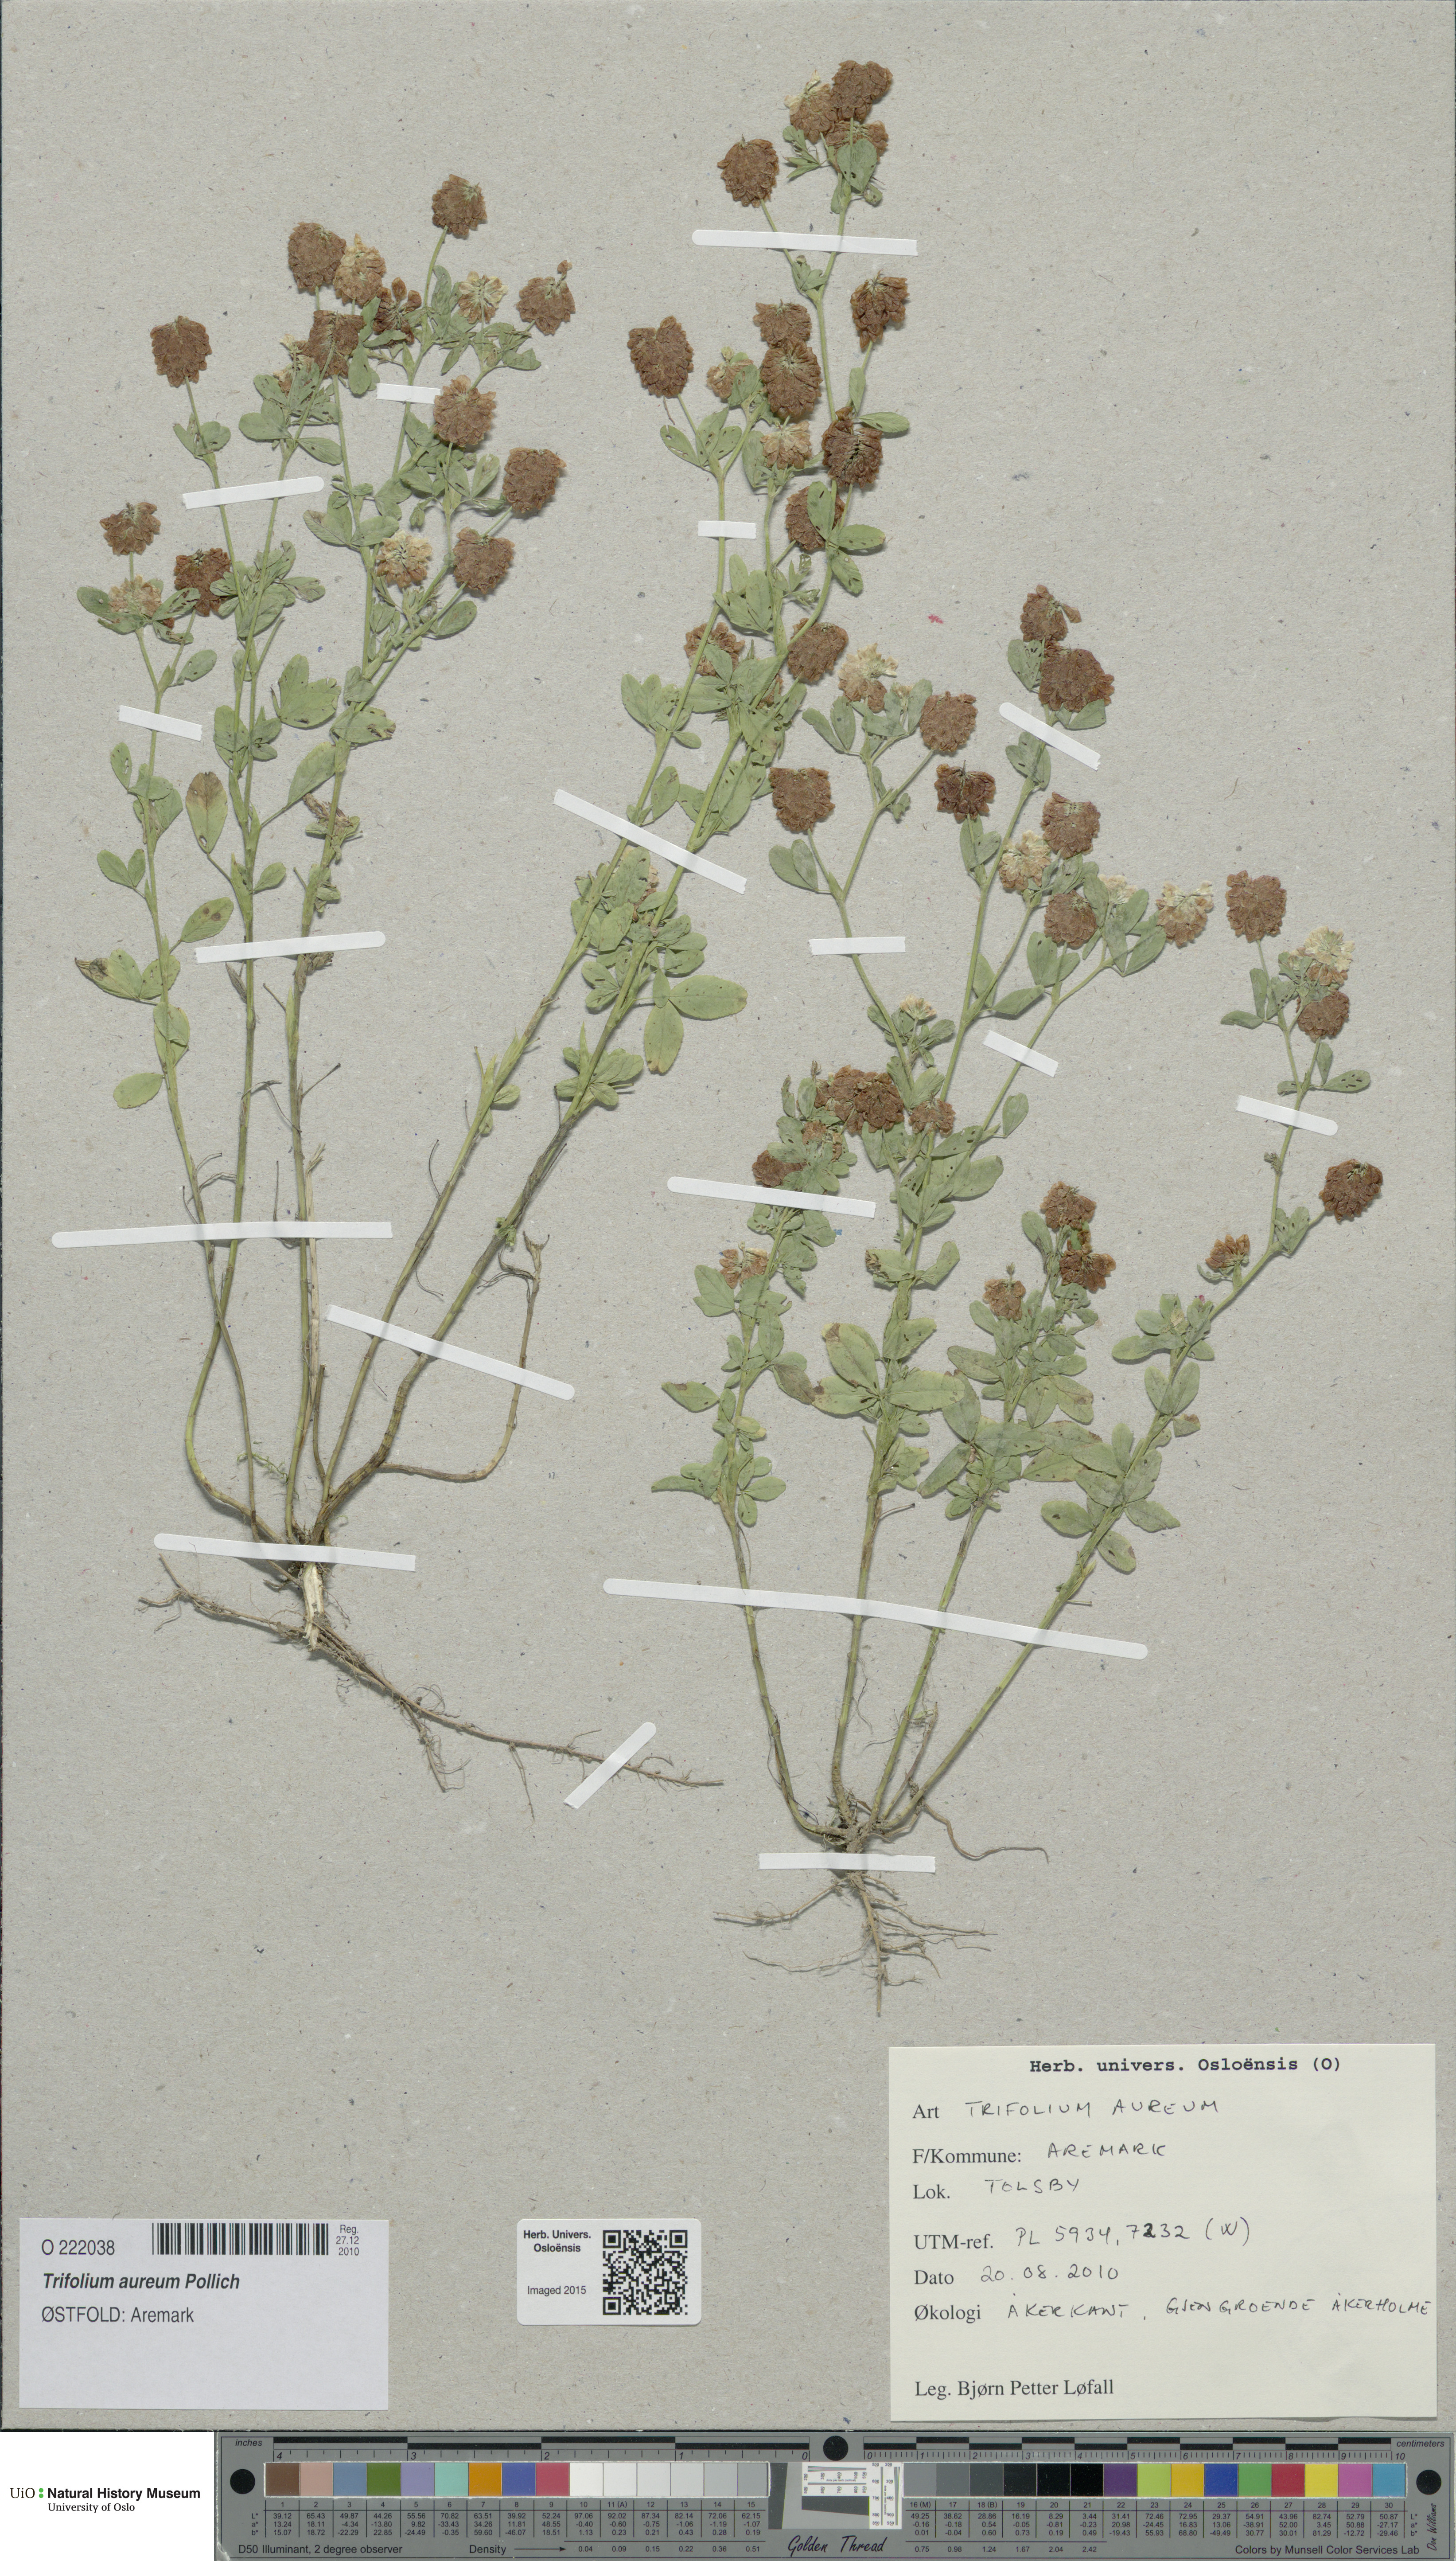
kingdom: Plantae
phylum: Tracheophyta
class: Magnoliopsida
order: Fabales
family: Fabaceae
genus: Trifolium
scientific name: Trifolium aureum
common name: Golden clover
